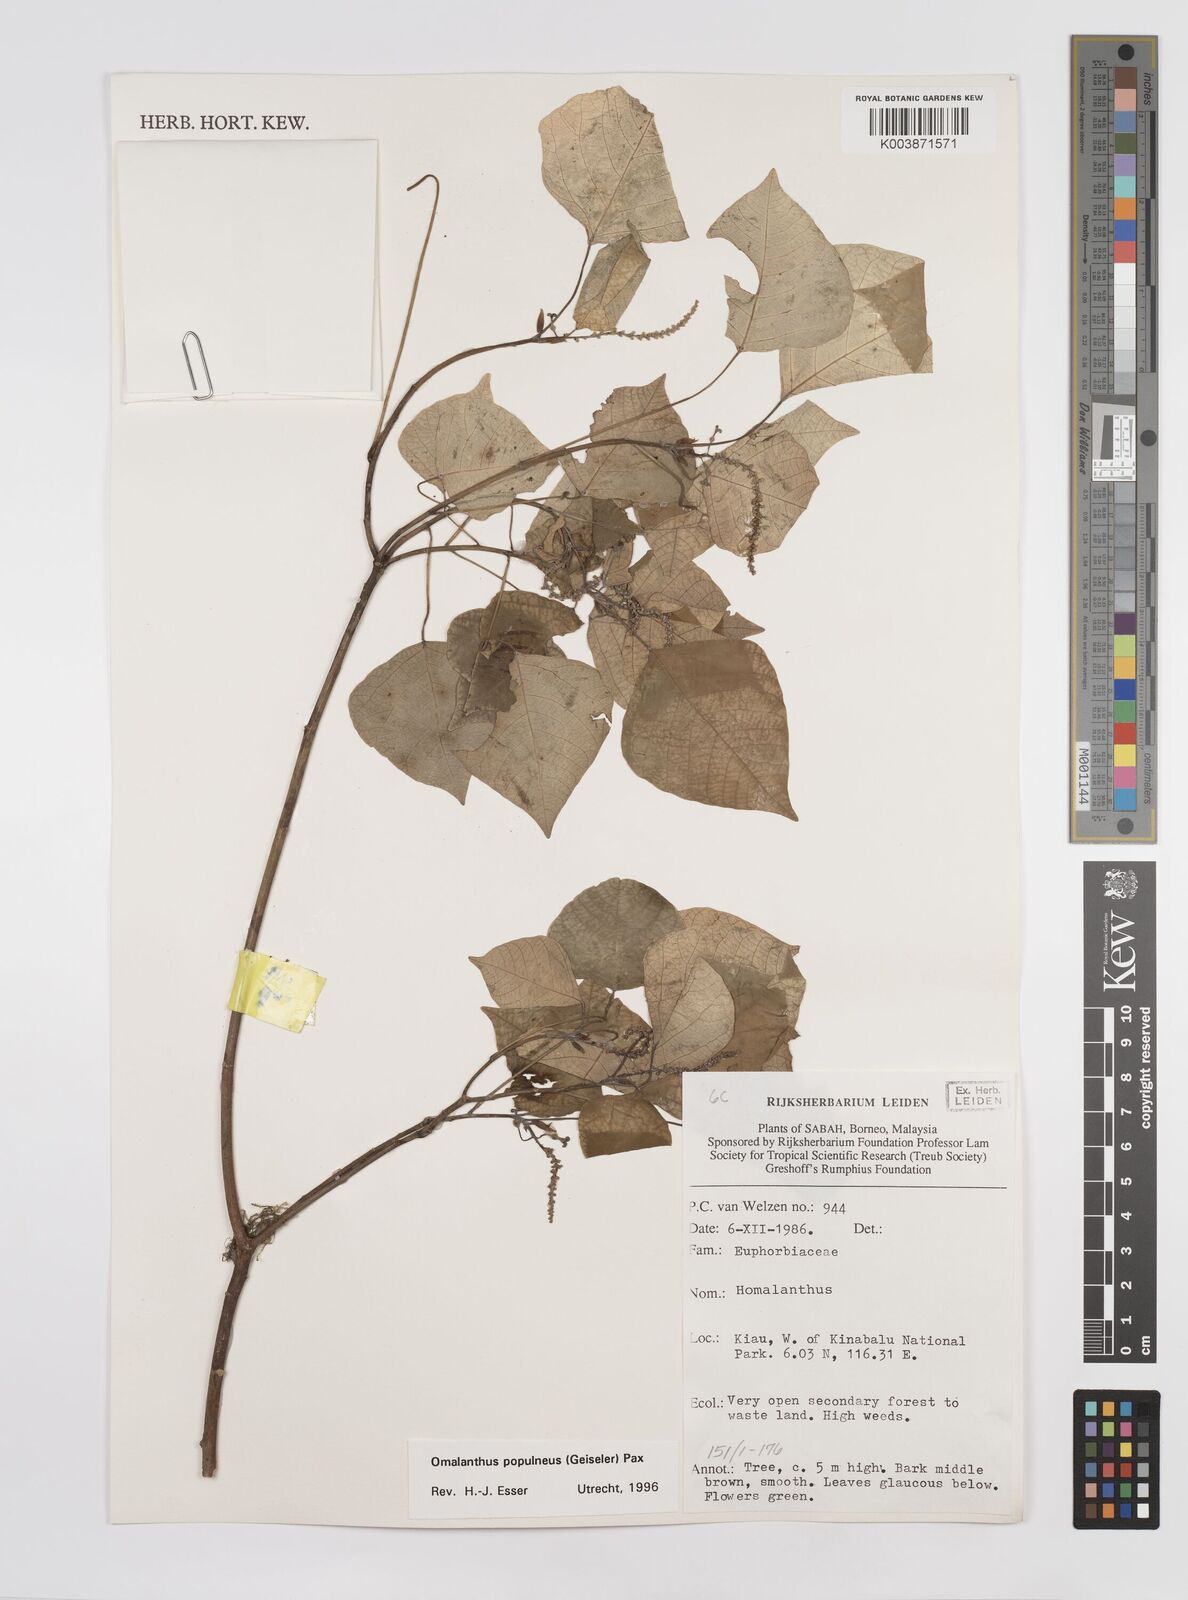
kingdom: Plantae
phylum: Tracheophyta
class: Magnoliopsida
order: Malpighiales
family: Euphorbiaceae
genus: Homalanthus
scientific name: Homalanthus populneus
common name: Spurge
